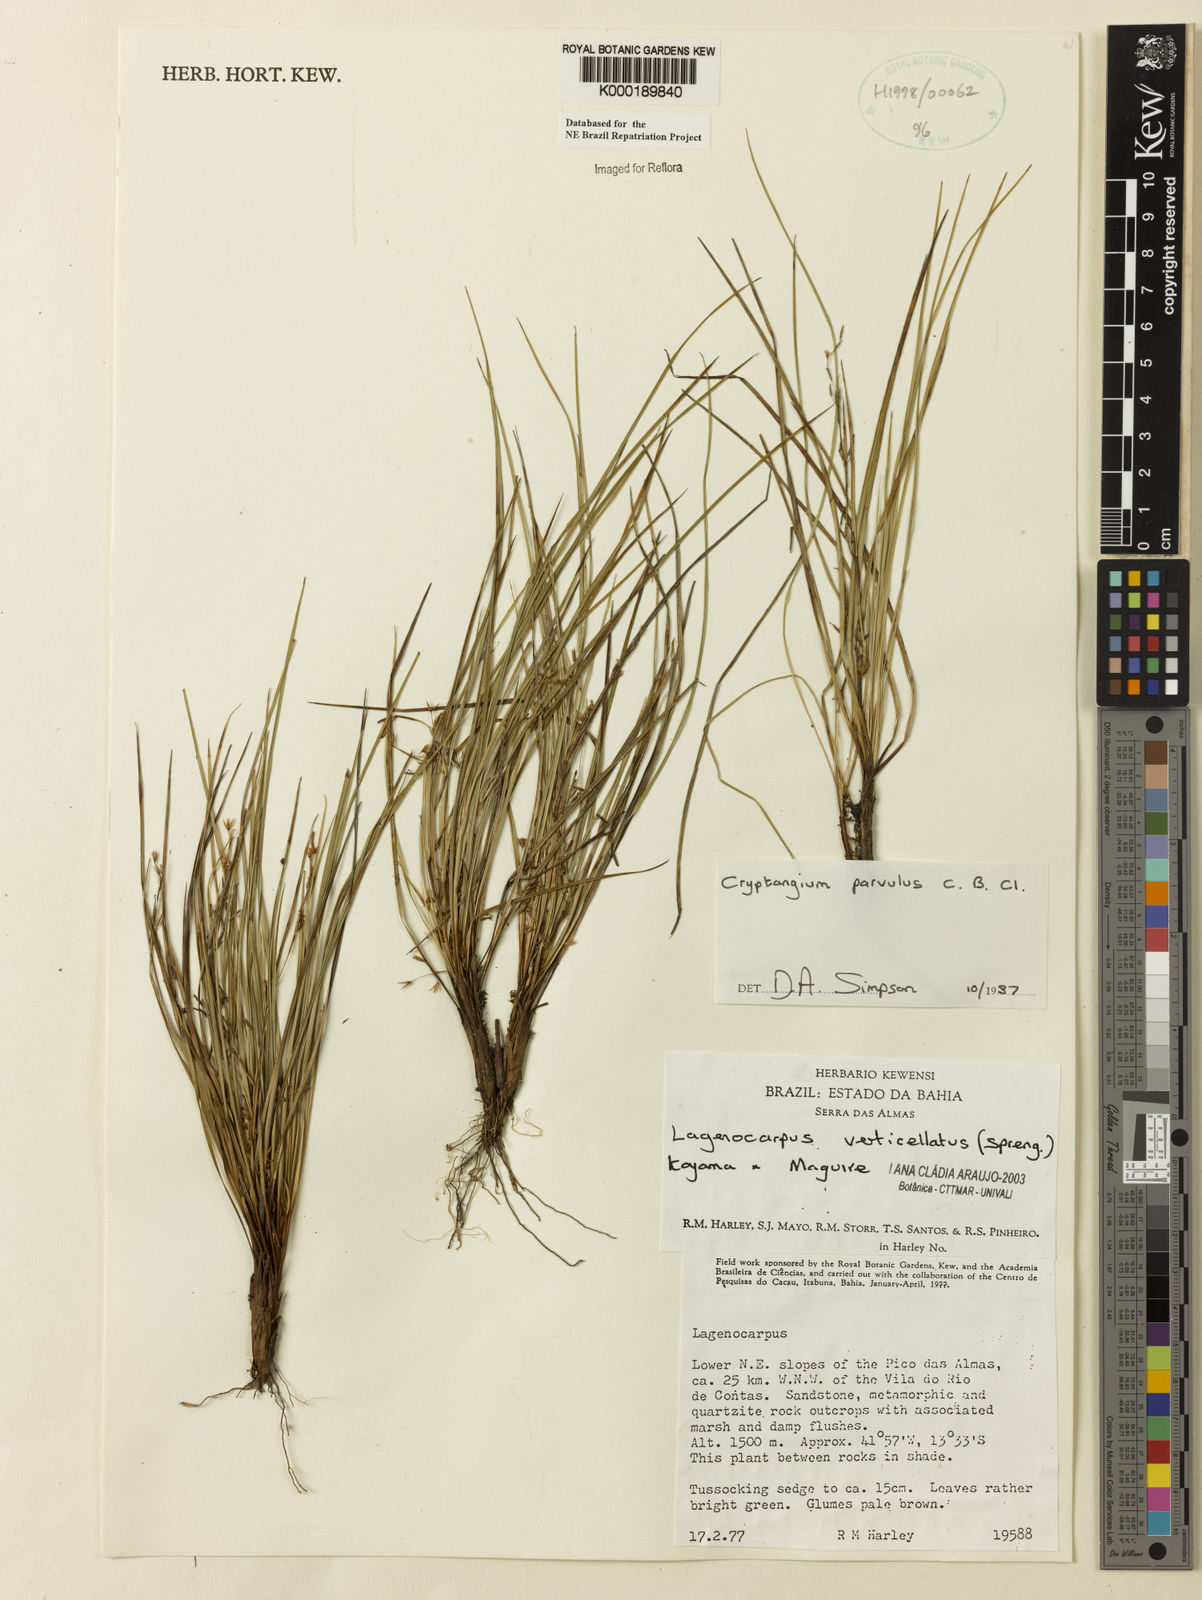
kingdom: Plantae
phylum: Tracheophyta
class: Liliopsida
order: Poales
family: Cyperaceae
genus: Cryptangium
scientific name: Cryptangium verticillatum
